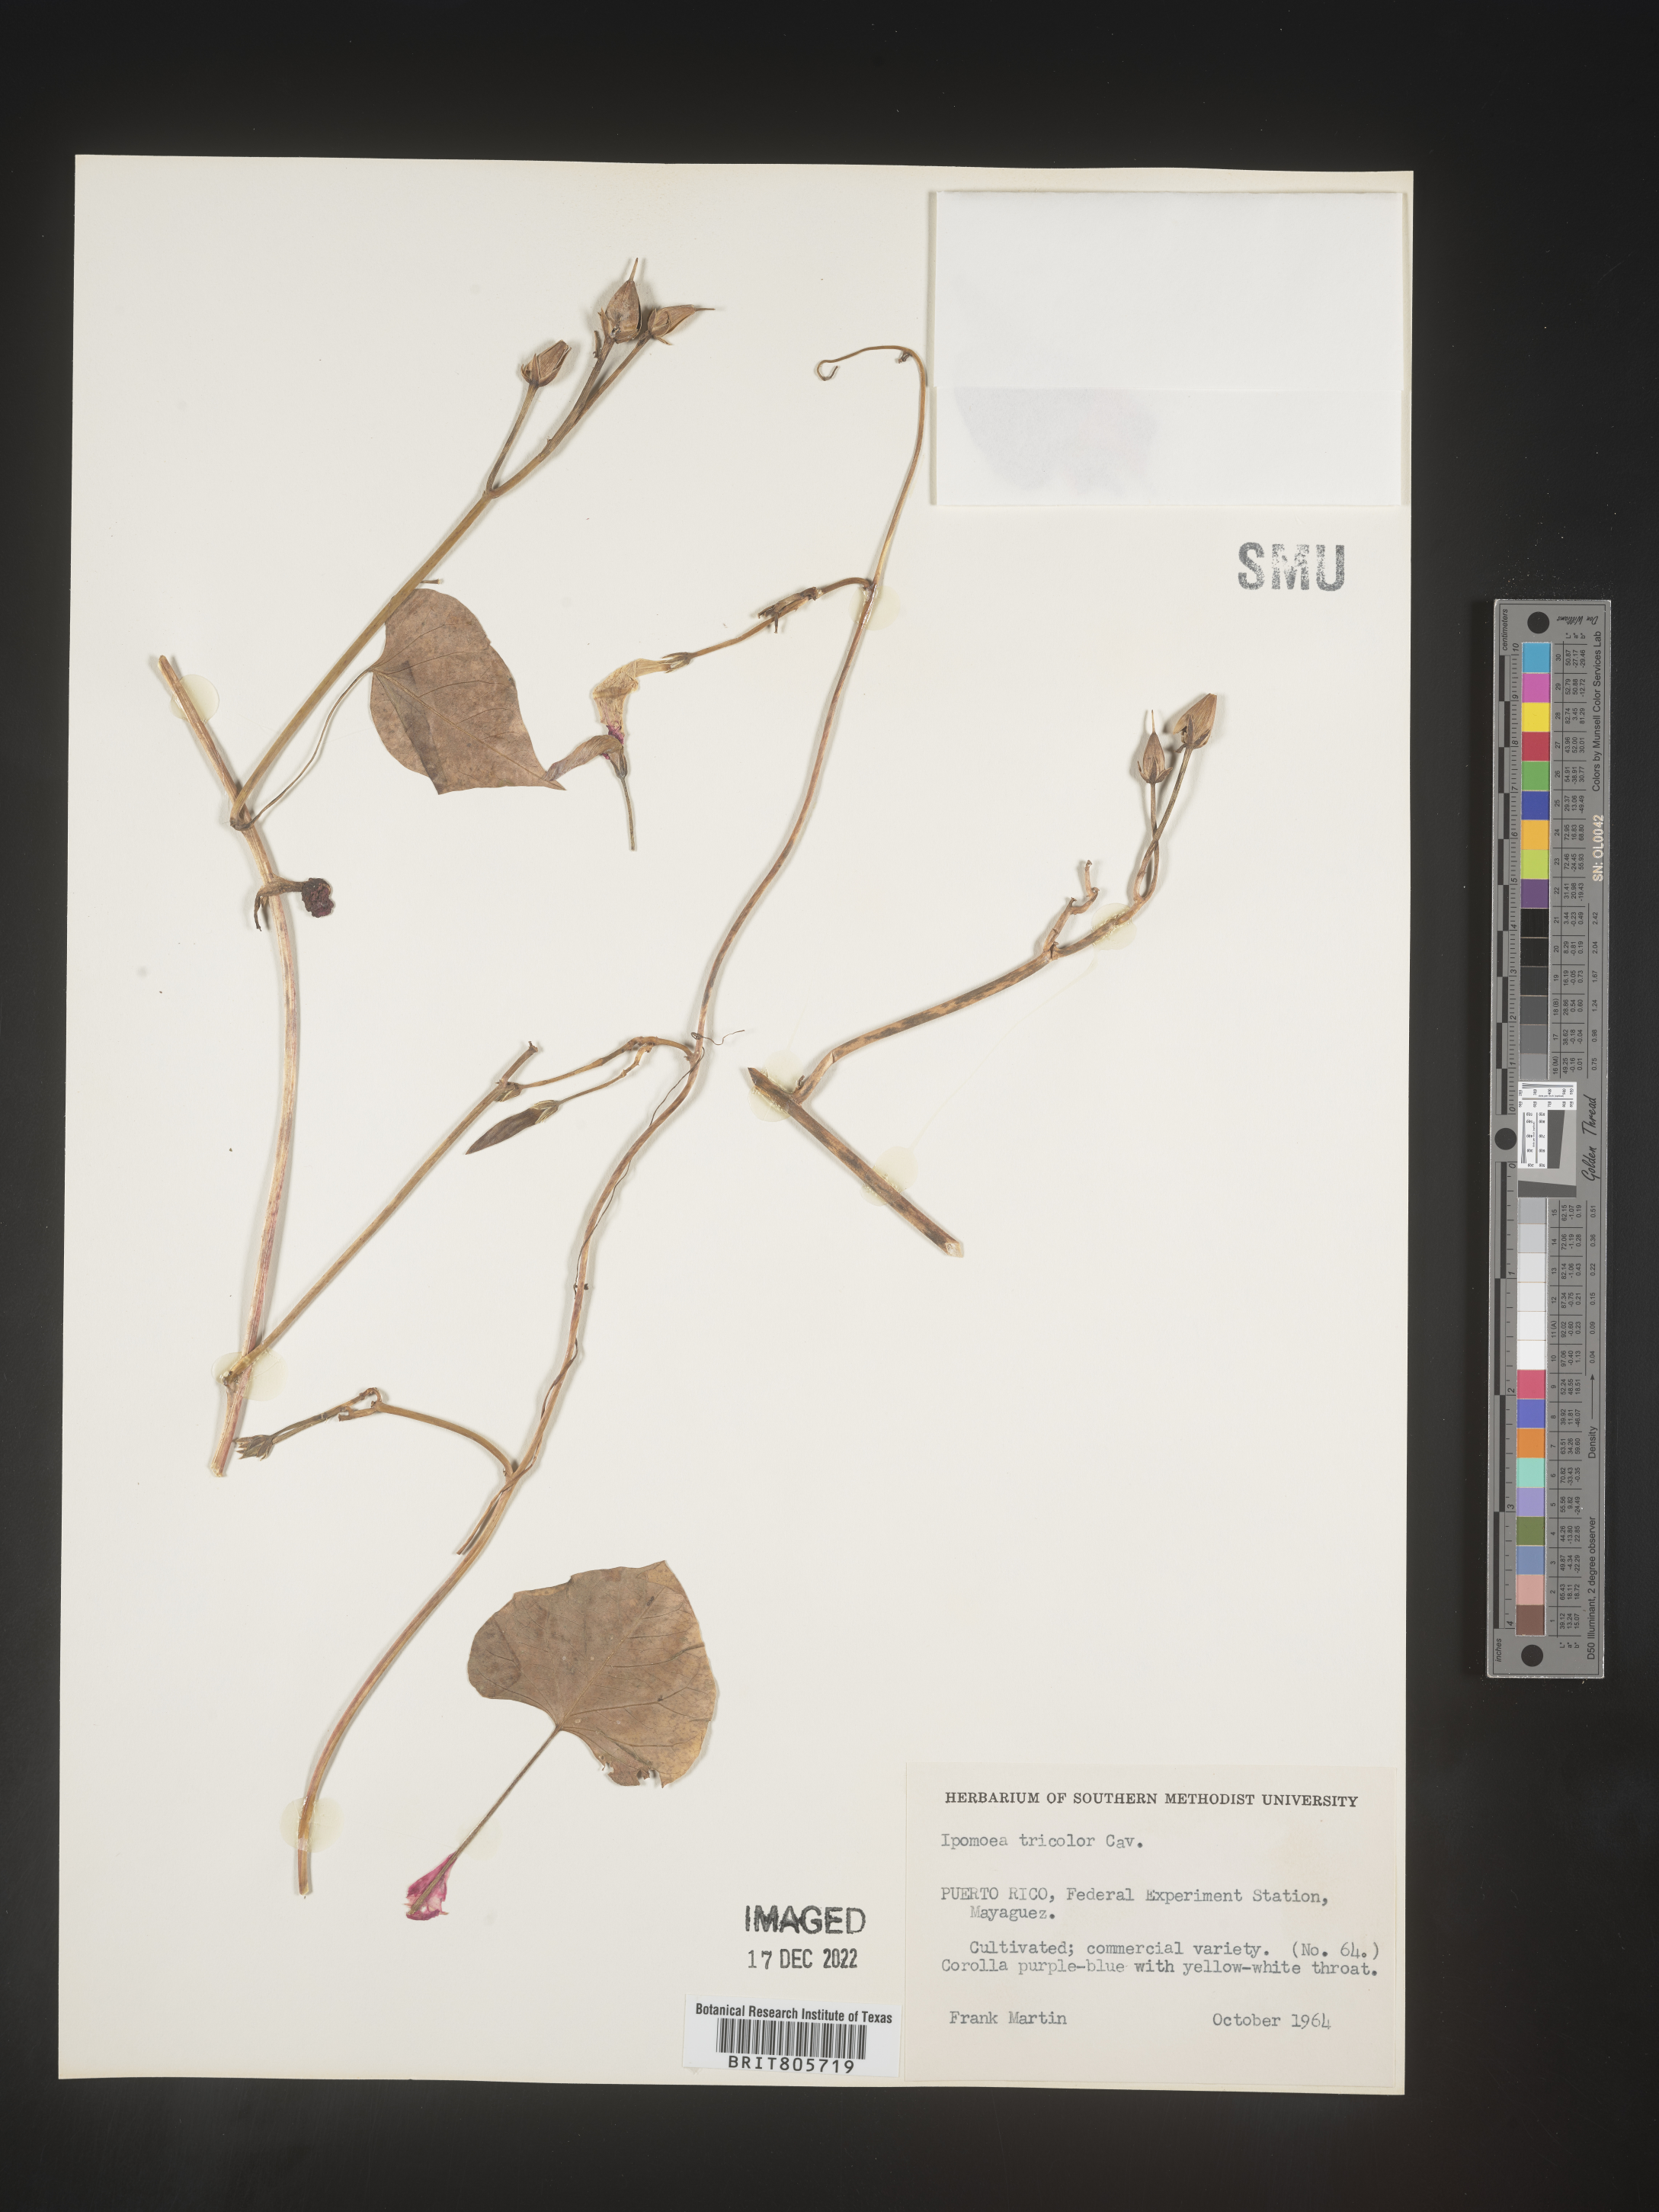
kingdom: Plantae
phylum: Tracheophyta
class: Magnoliopsida
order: Solanales
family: Convolvulaceae
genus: Ipomoea
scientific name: Ipomoea
